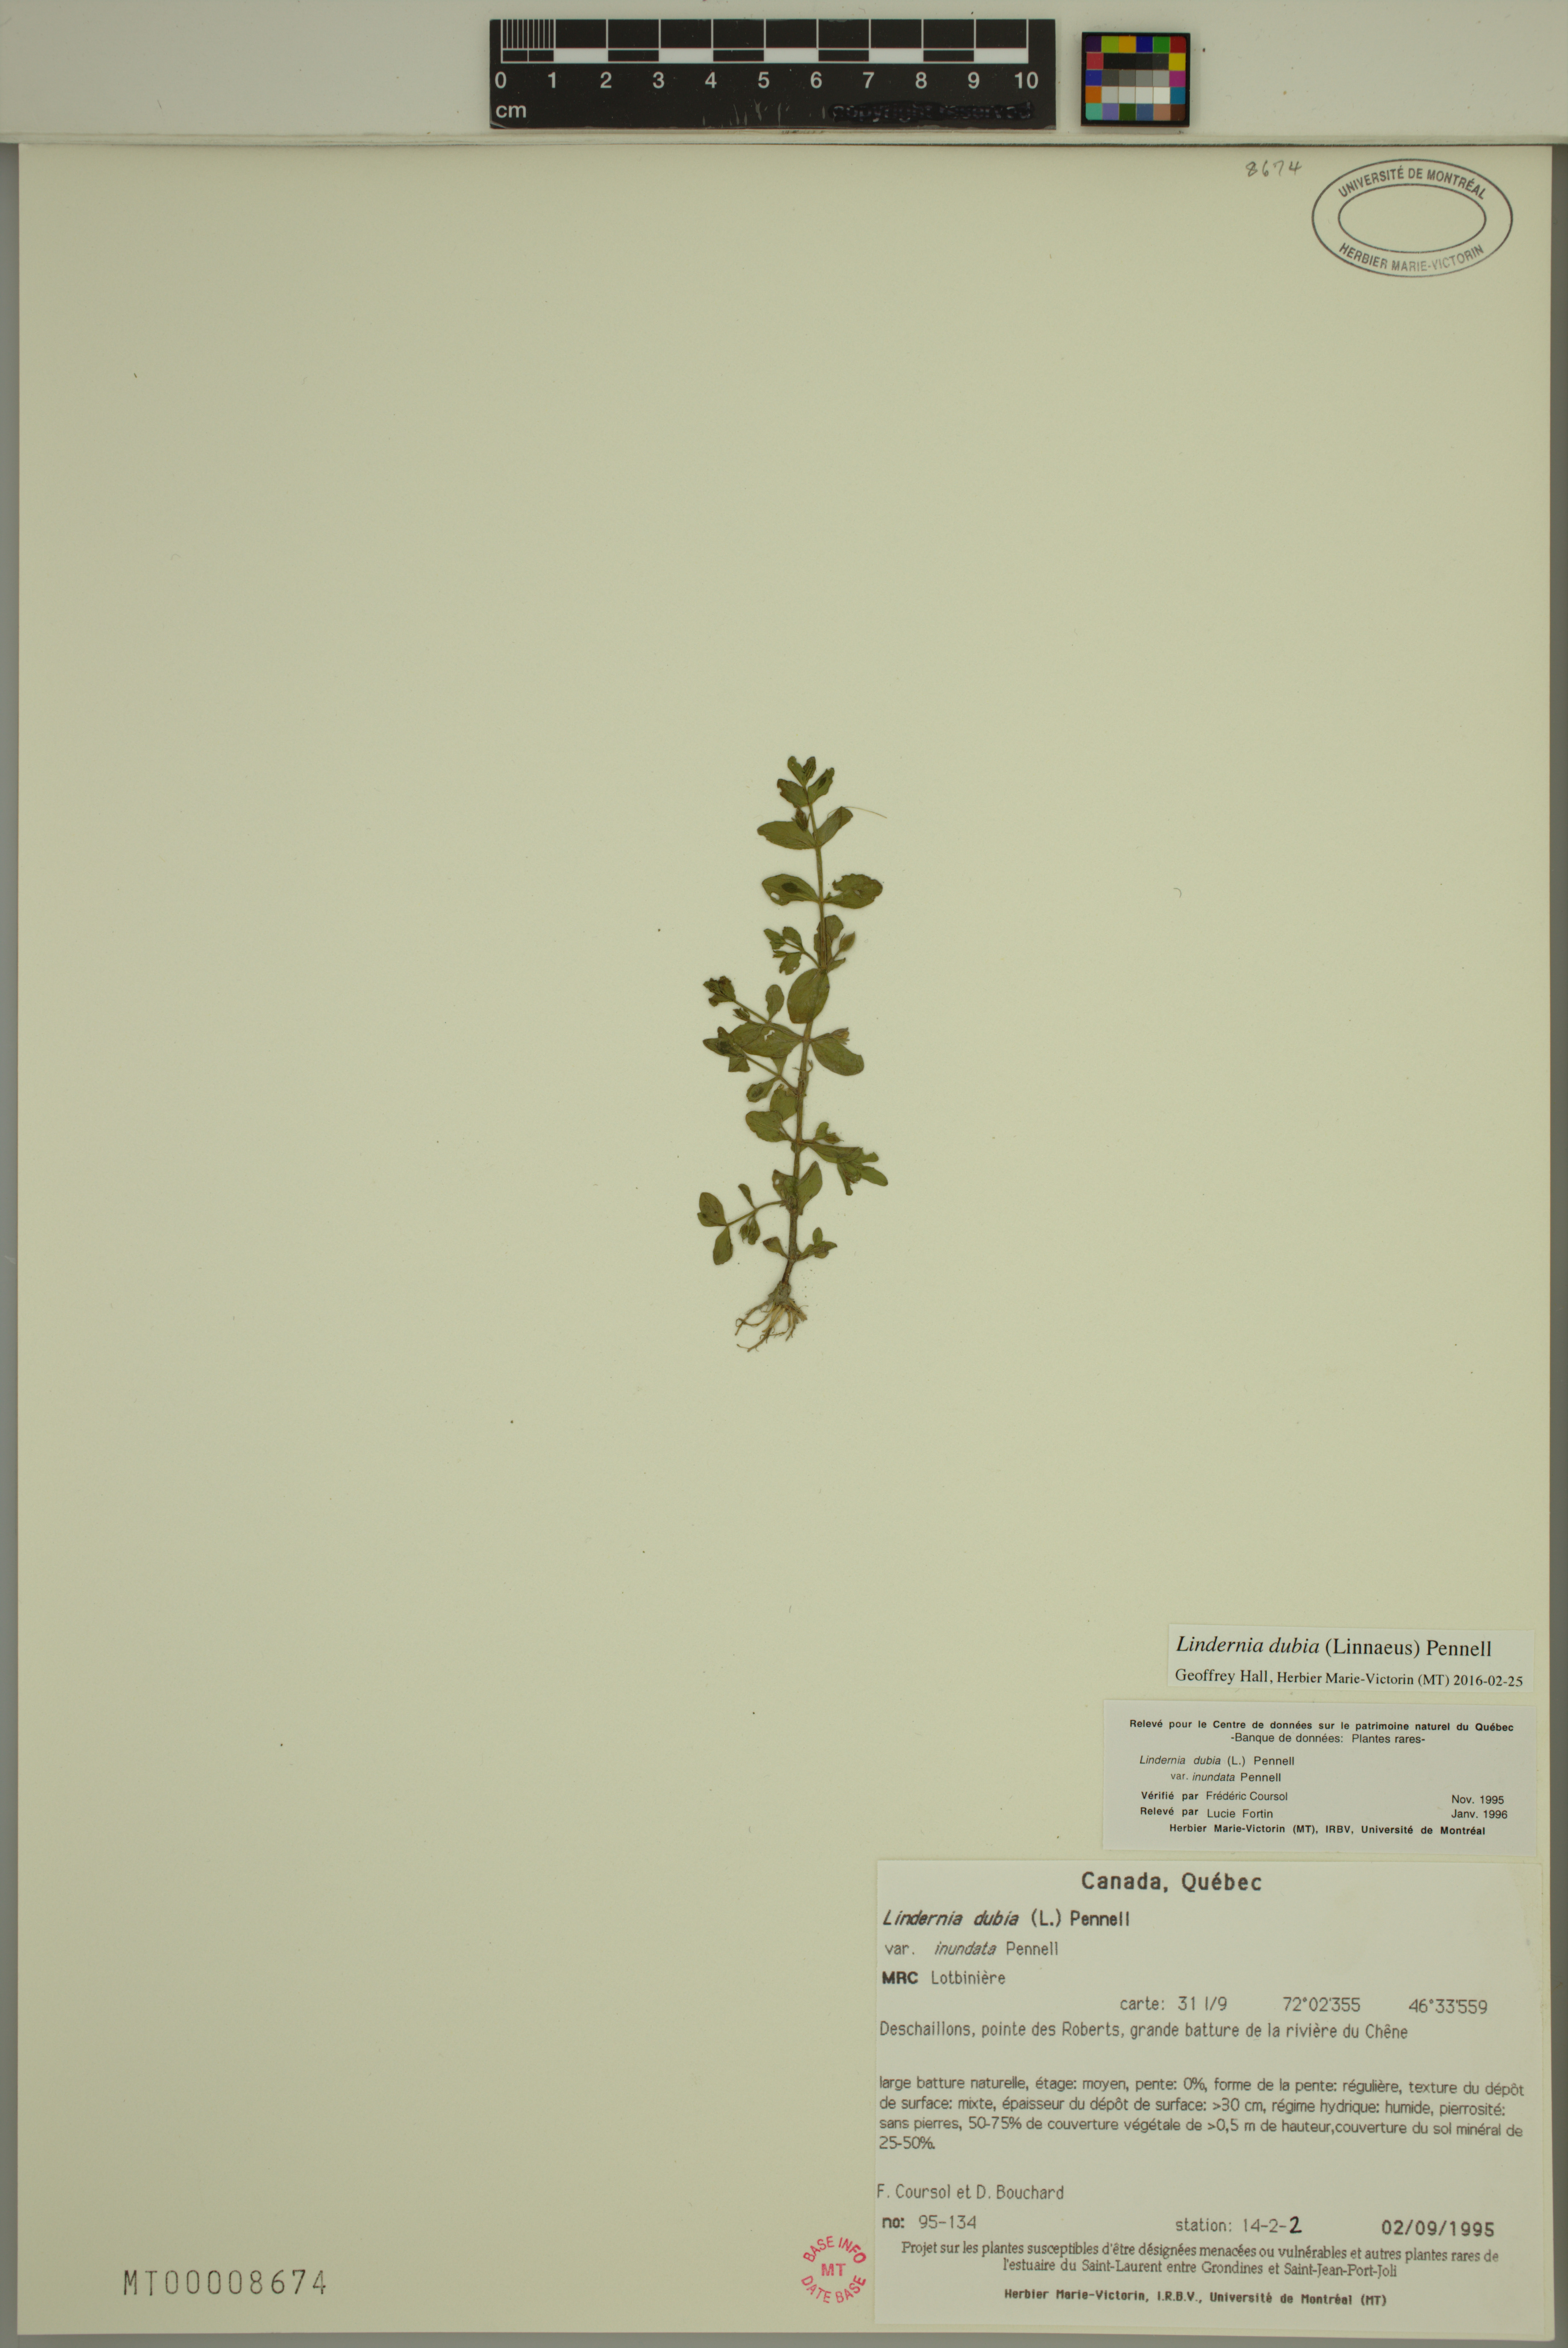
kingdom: Plantae
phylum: Tracheophyta
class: Magnoliopsida
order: Lamiales
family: Linderniaceae
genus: Lindernia
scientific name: Lindernia dubia
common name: Annual false pimpernel
